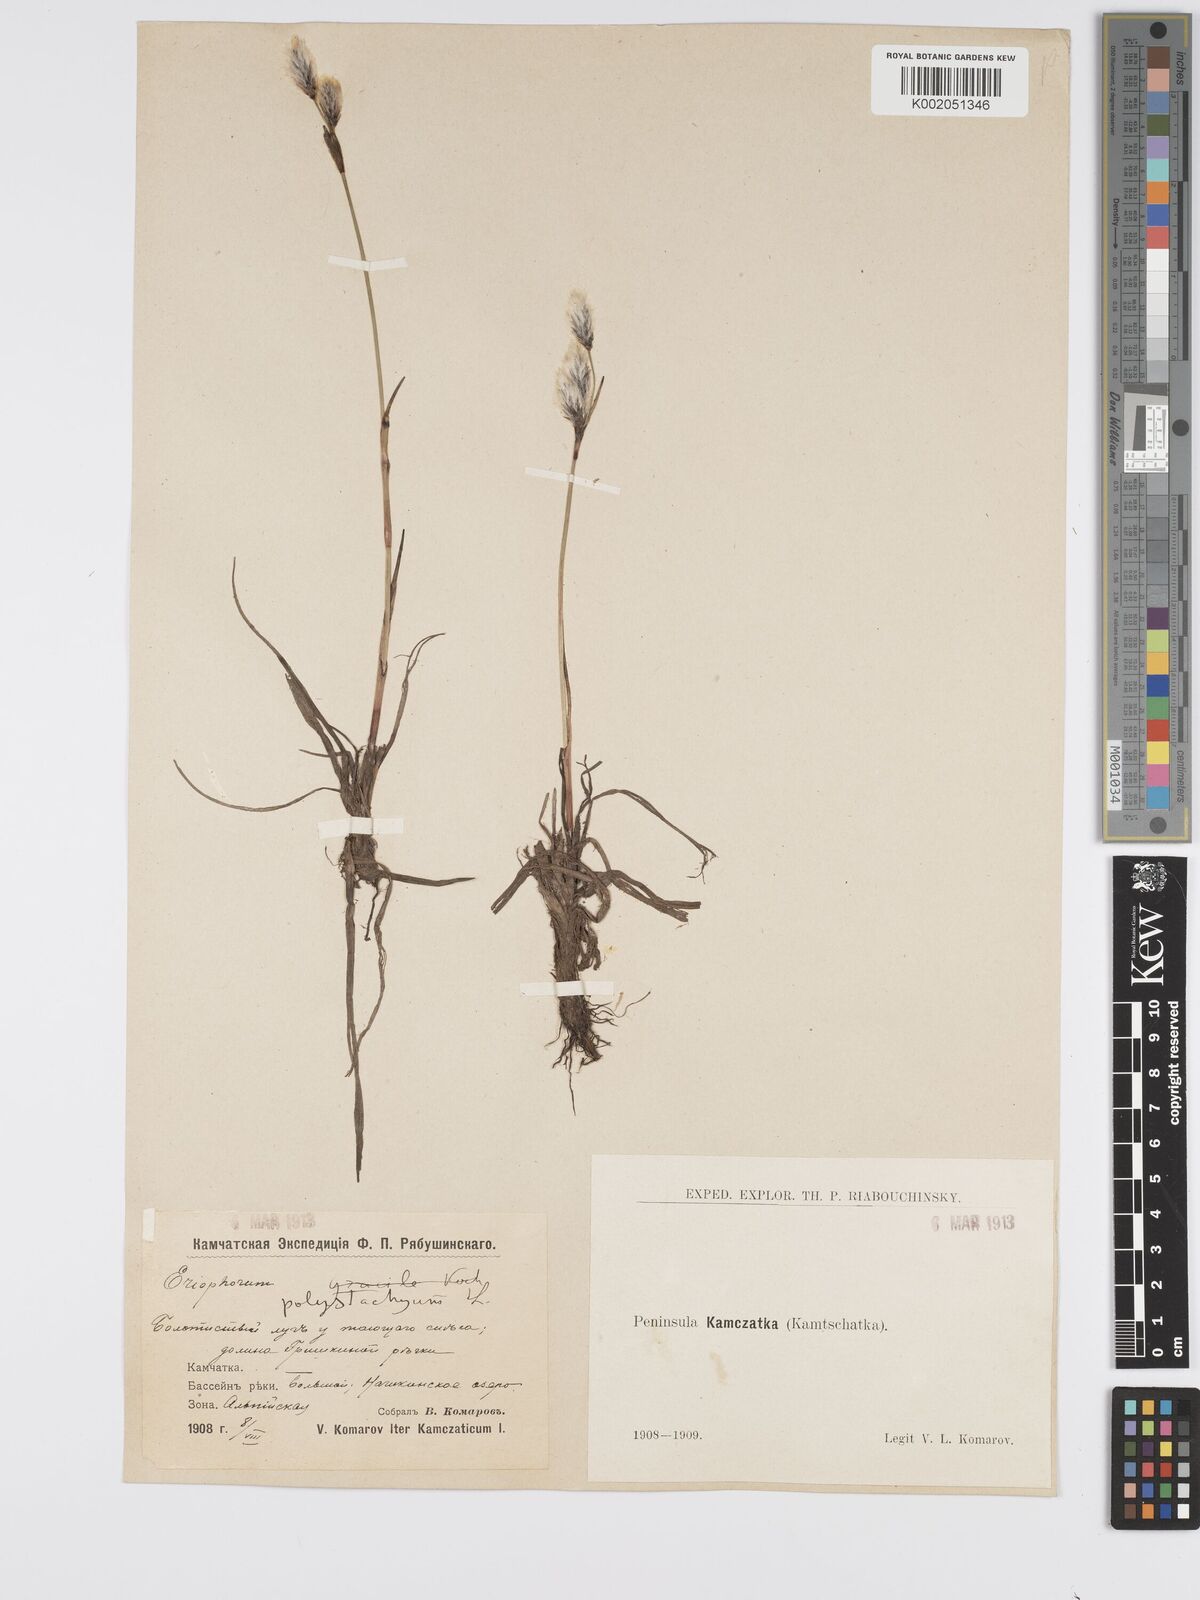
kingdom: Plantae
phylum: Tracheophyta
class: Liliopsida
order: Poales
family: Cyperaceae
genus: Eriophorum
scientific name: Eriophorum angustifolium
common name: Common cottongrass
